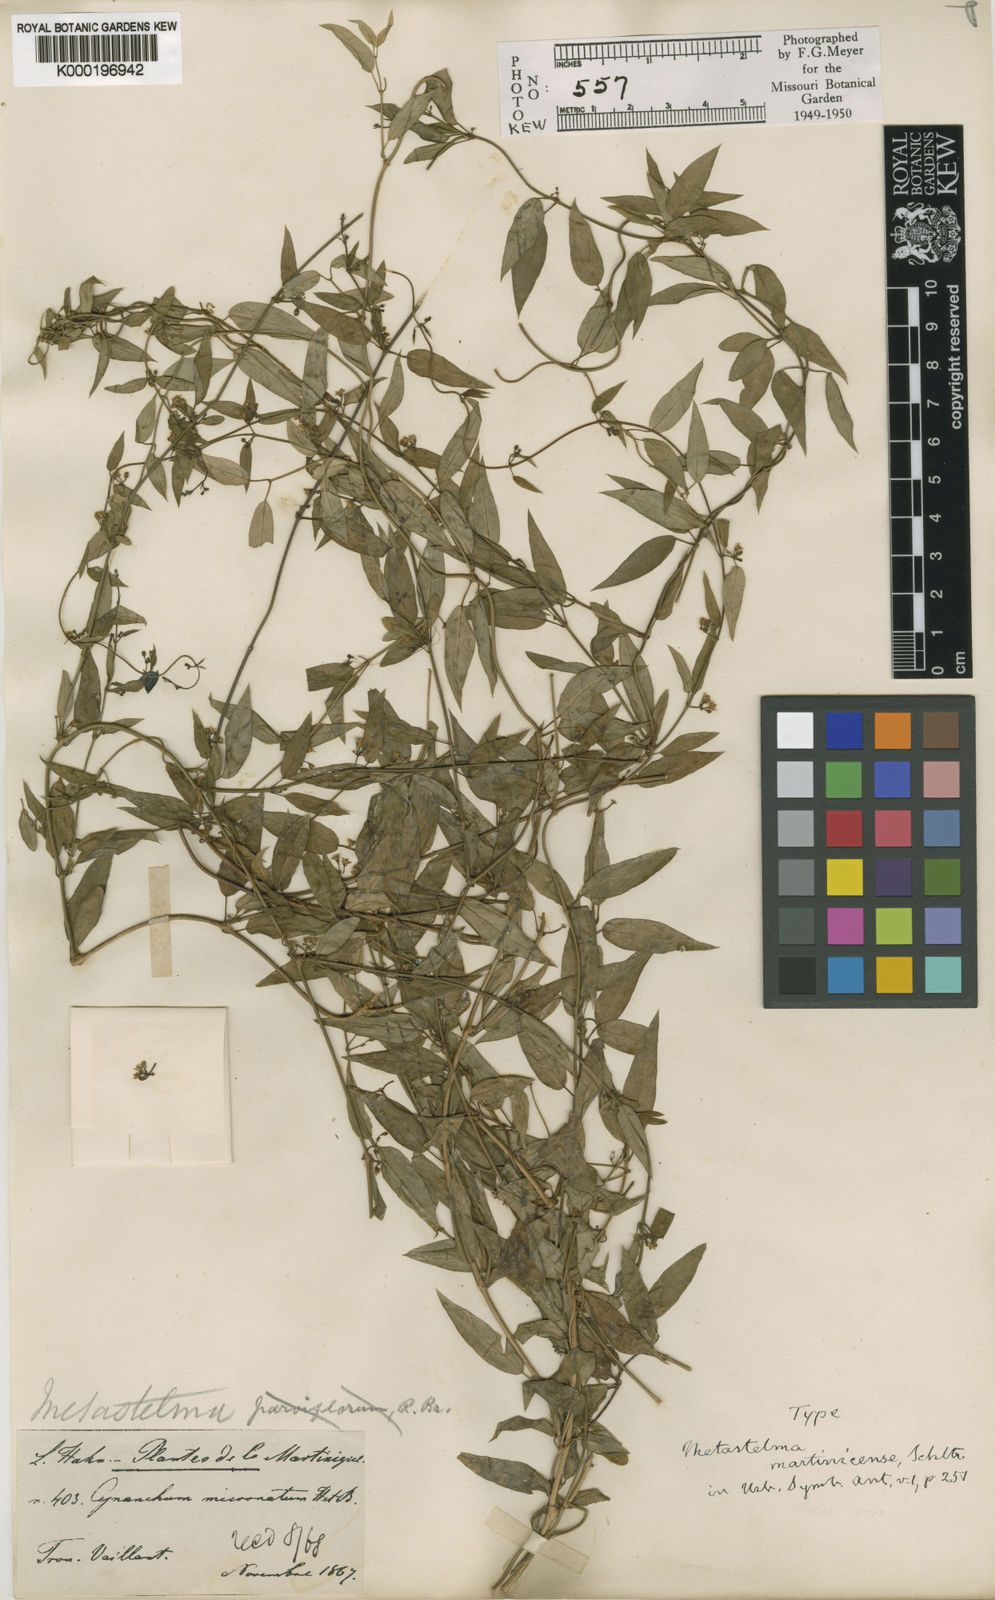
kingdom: Plantae
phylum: Tracheophyta
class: Magnoliopsida
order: Gentianales
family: Apocynaceae
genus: Metastelma
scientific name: Metastelma martinicense
